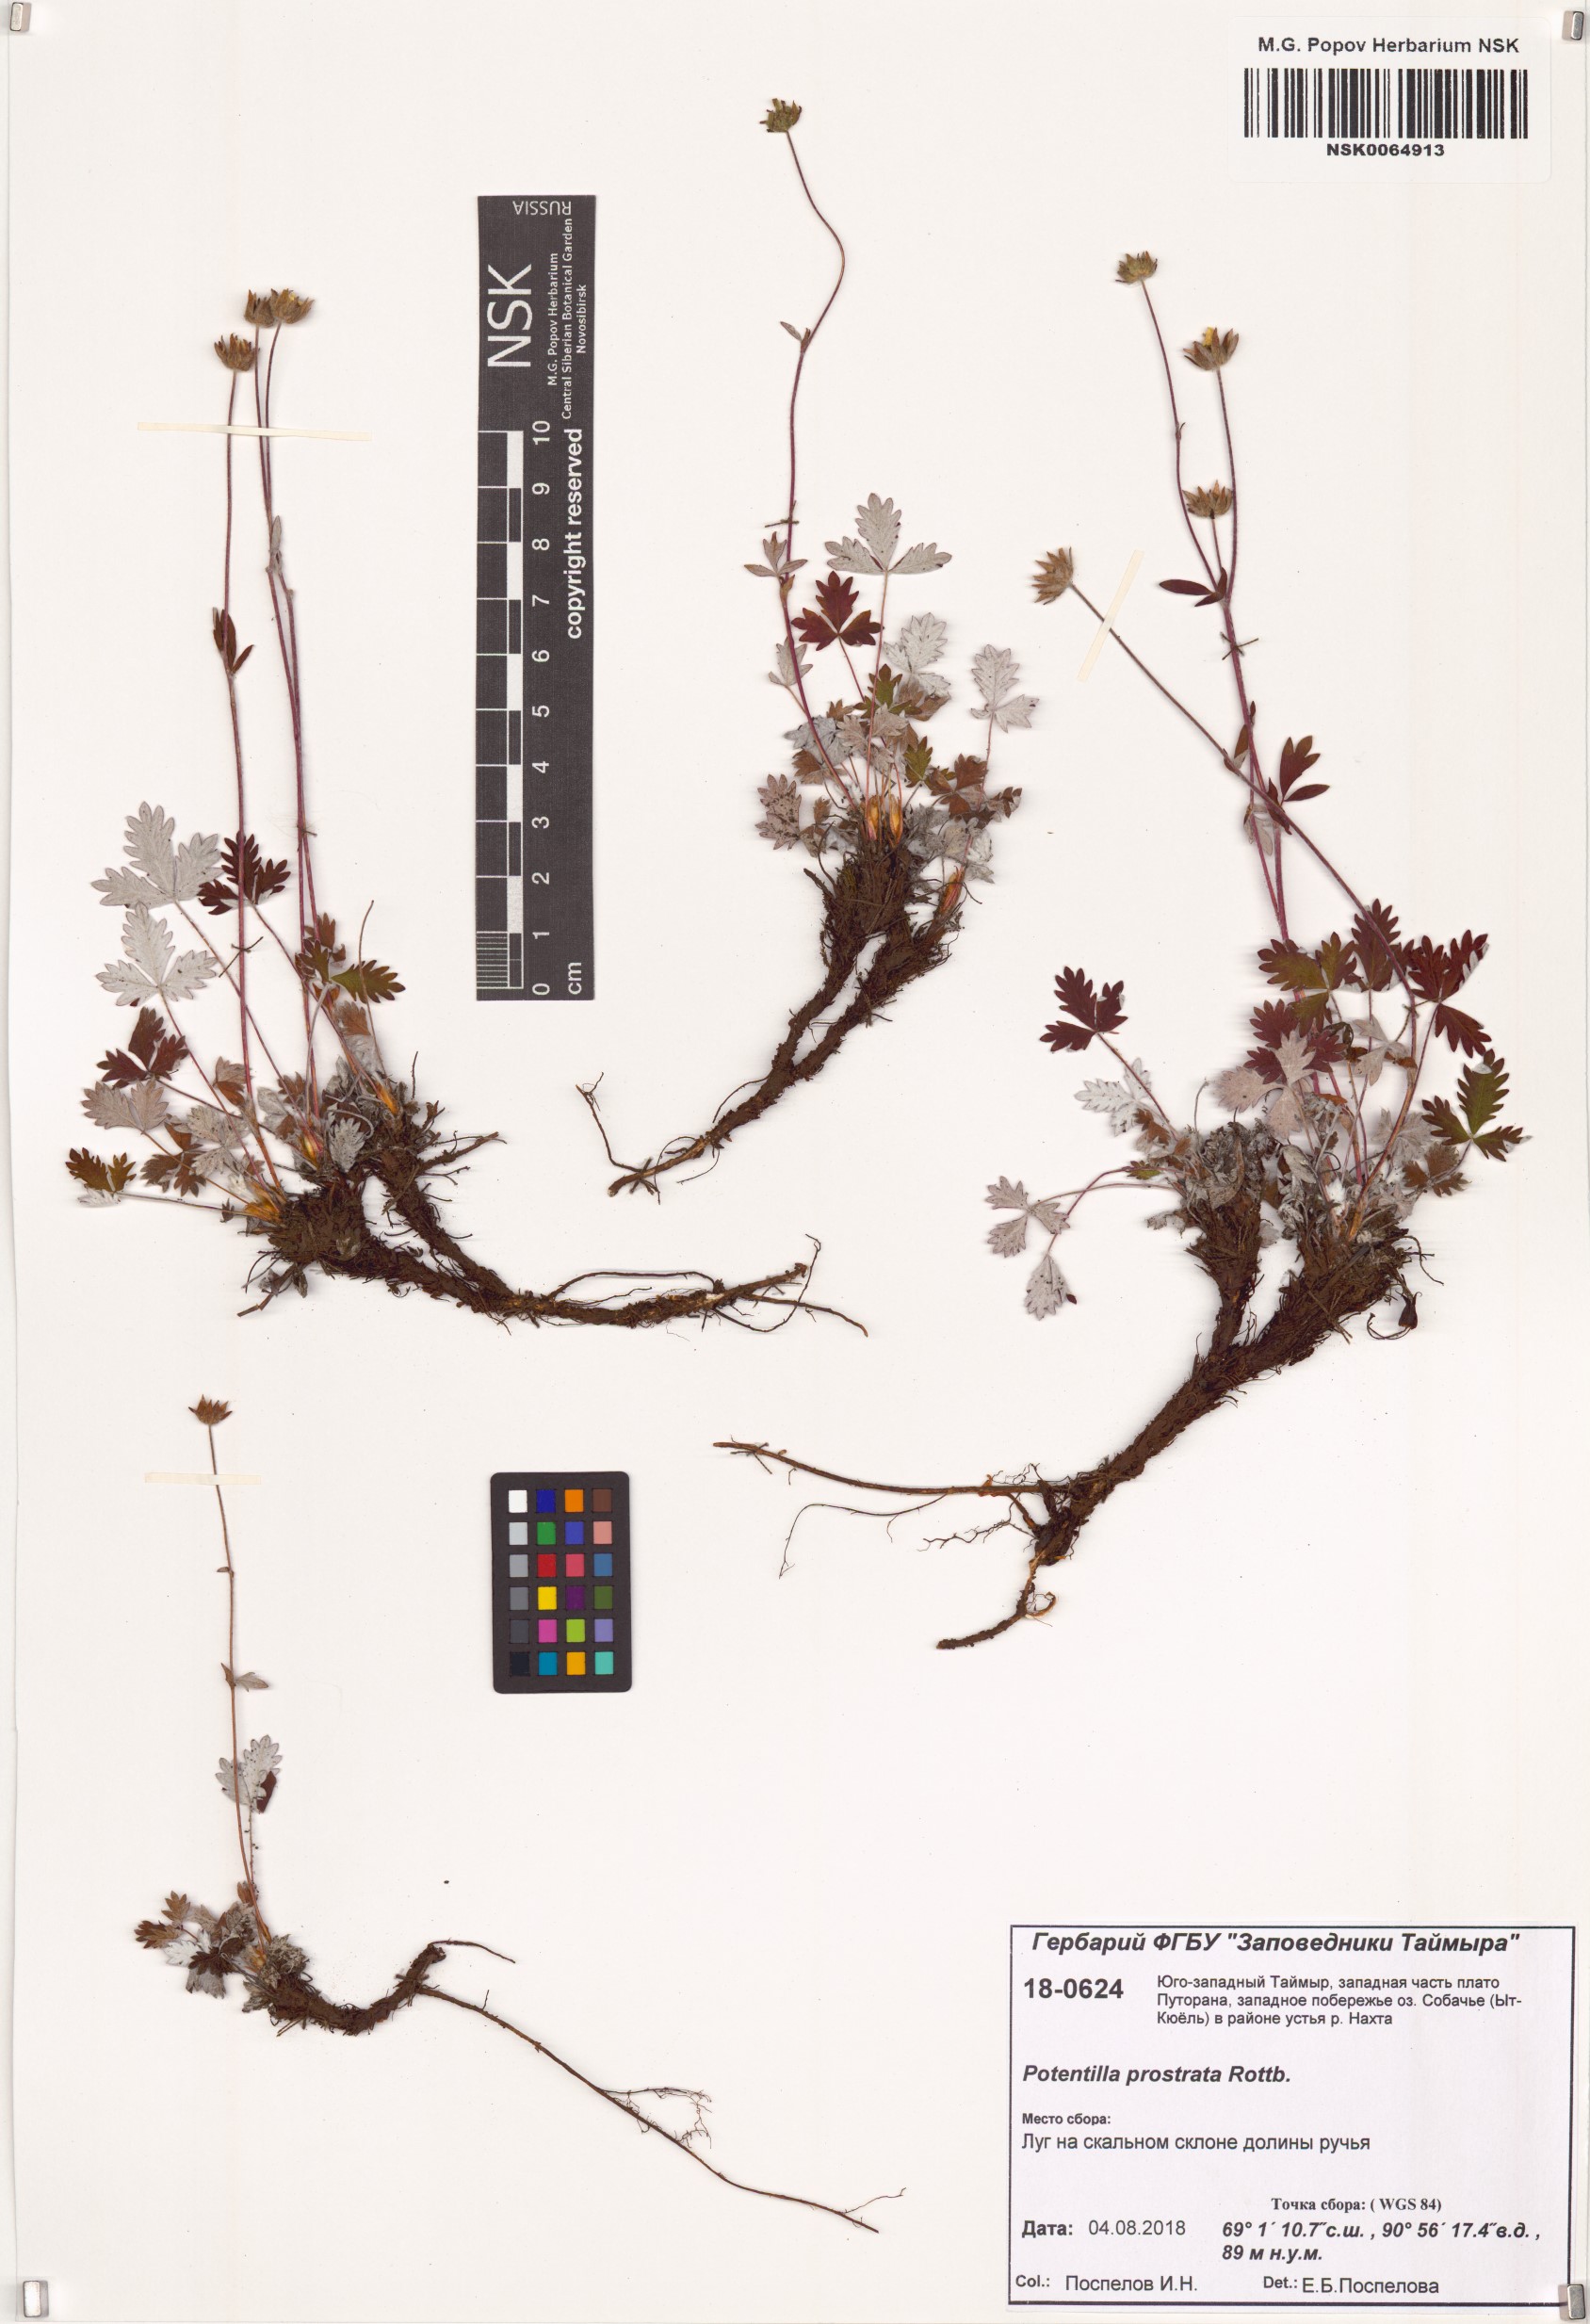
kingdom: Plantae
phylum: Tracheophyta
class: Magnoliopsida
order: Rosales
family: Rosaceae
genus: Potentilla
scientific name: Potentilla prostrata
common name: Prostrate cinquefoil
